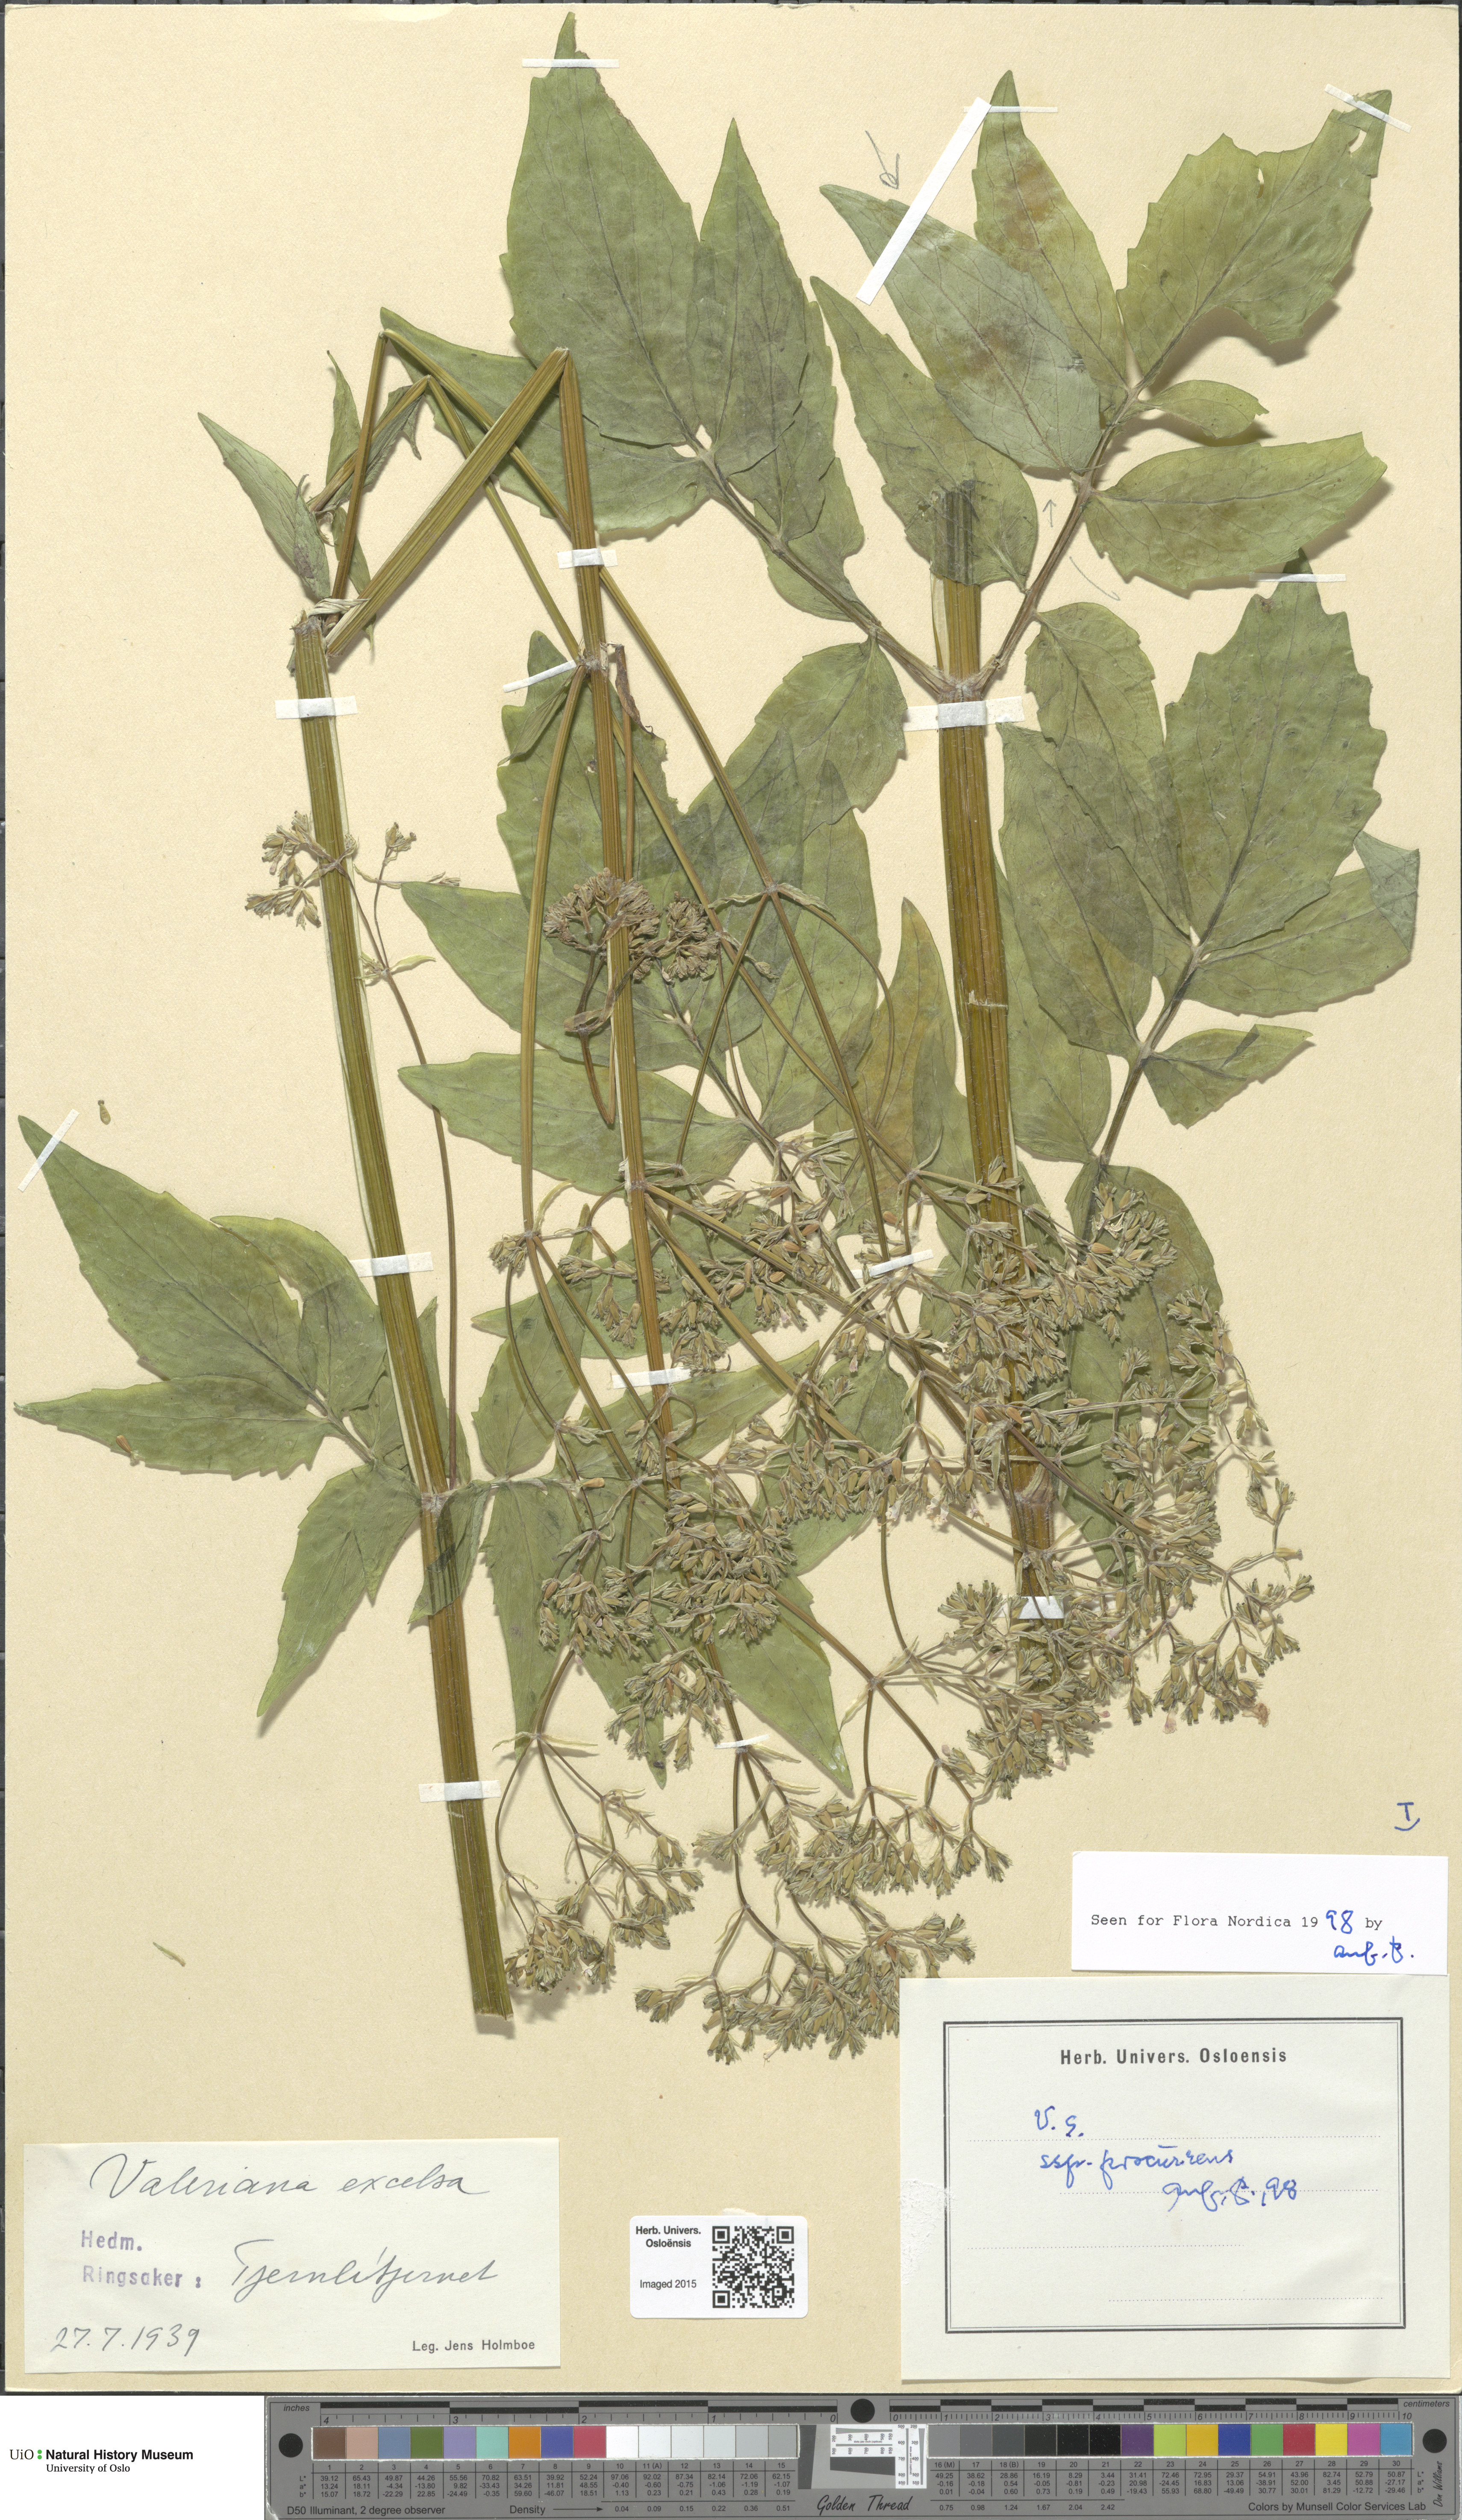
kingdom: Plantae
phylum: Tracheophyta
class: Magnoliopsida
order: Dipsacales
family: Caprifoliaceae
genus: Valeriana
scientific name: Valeriana excelsa
